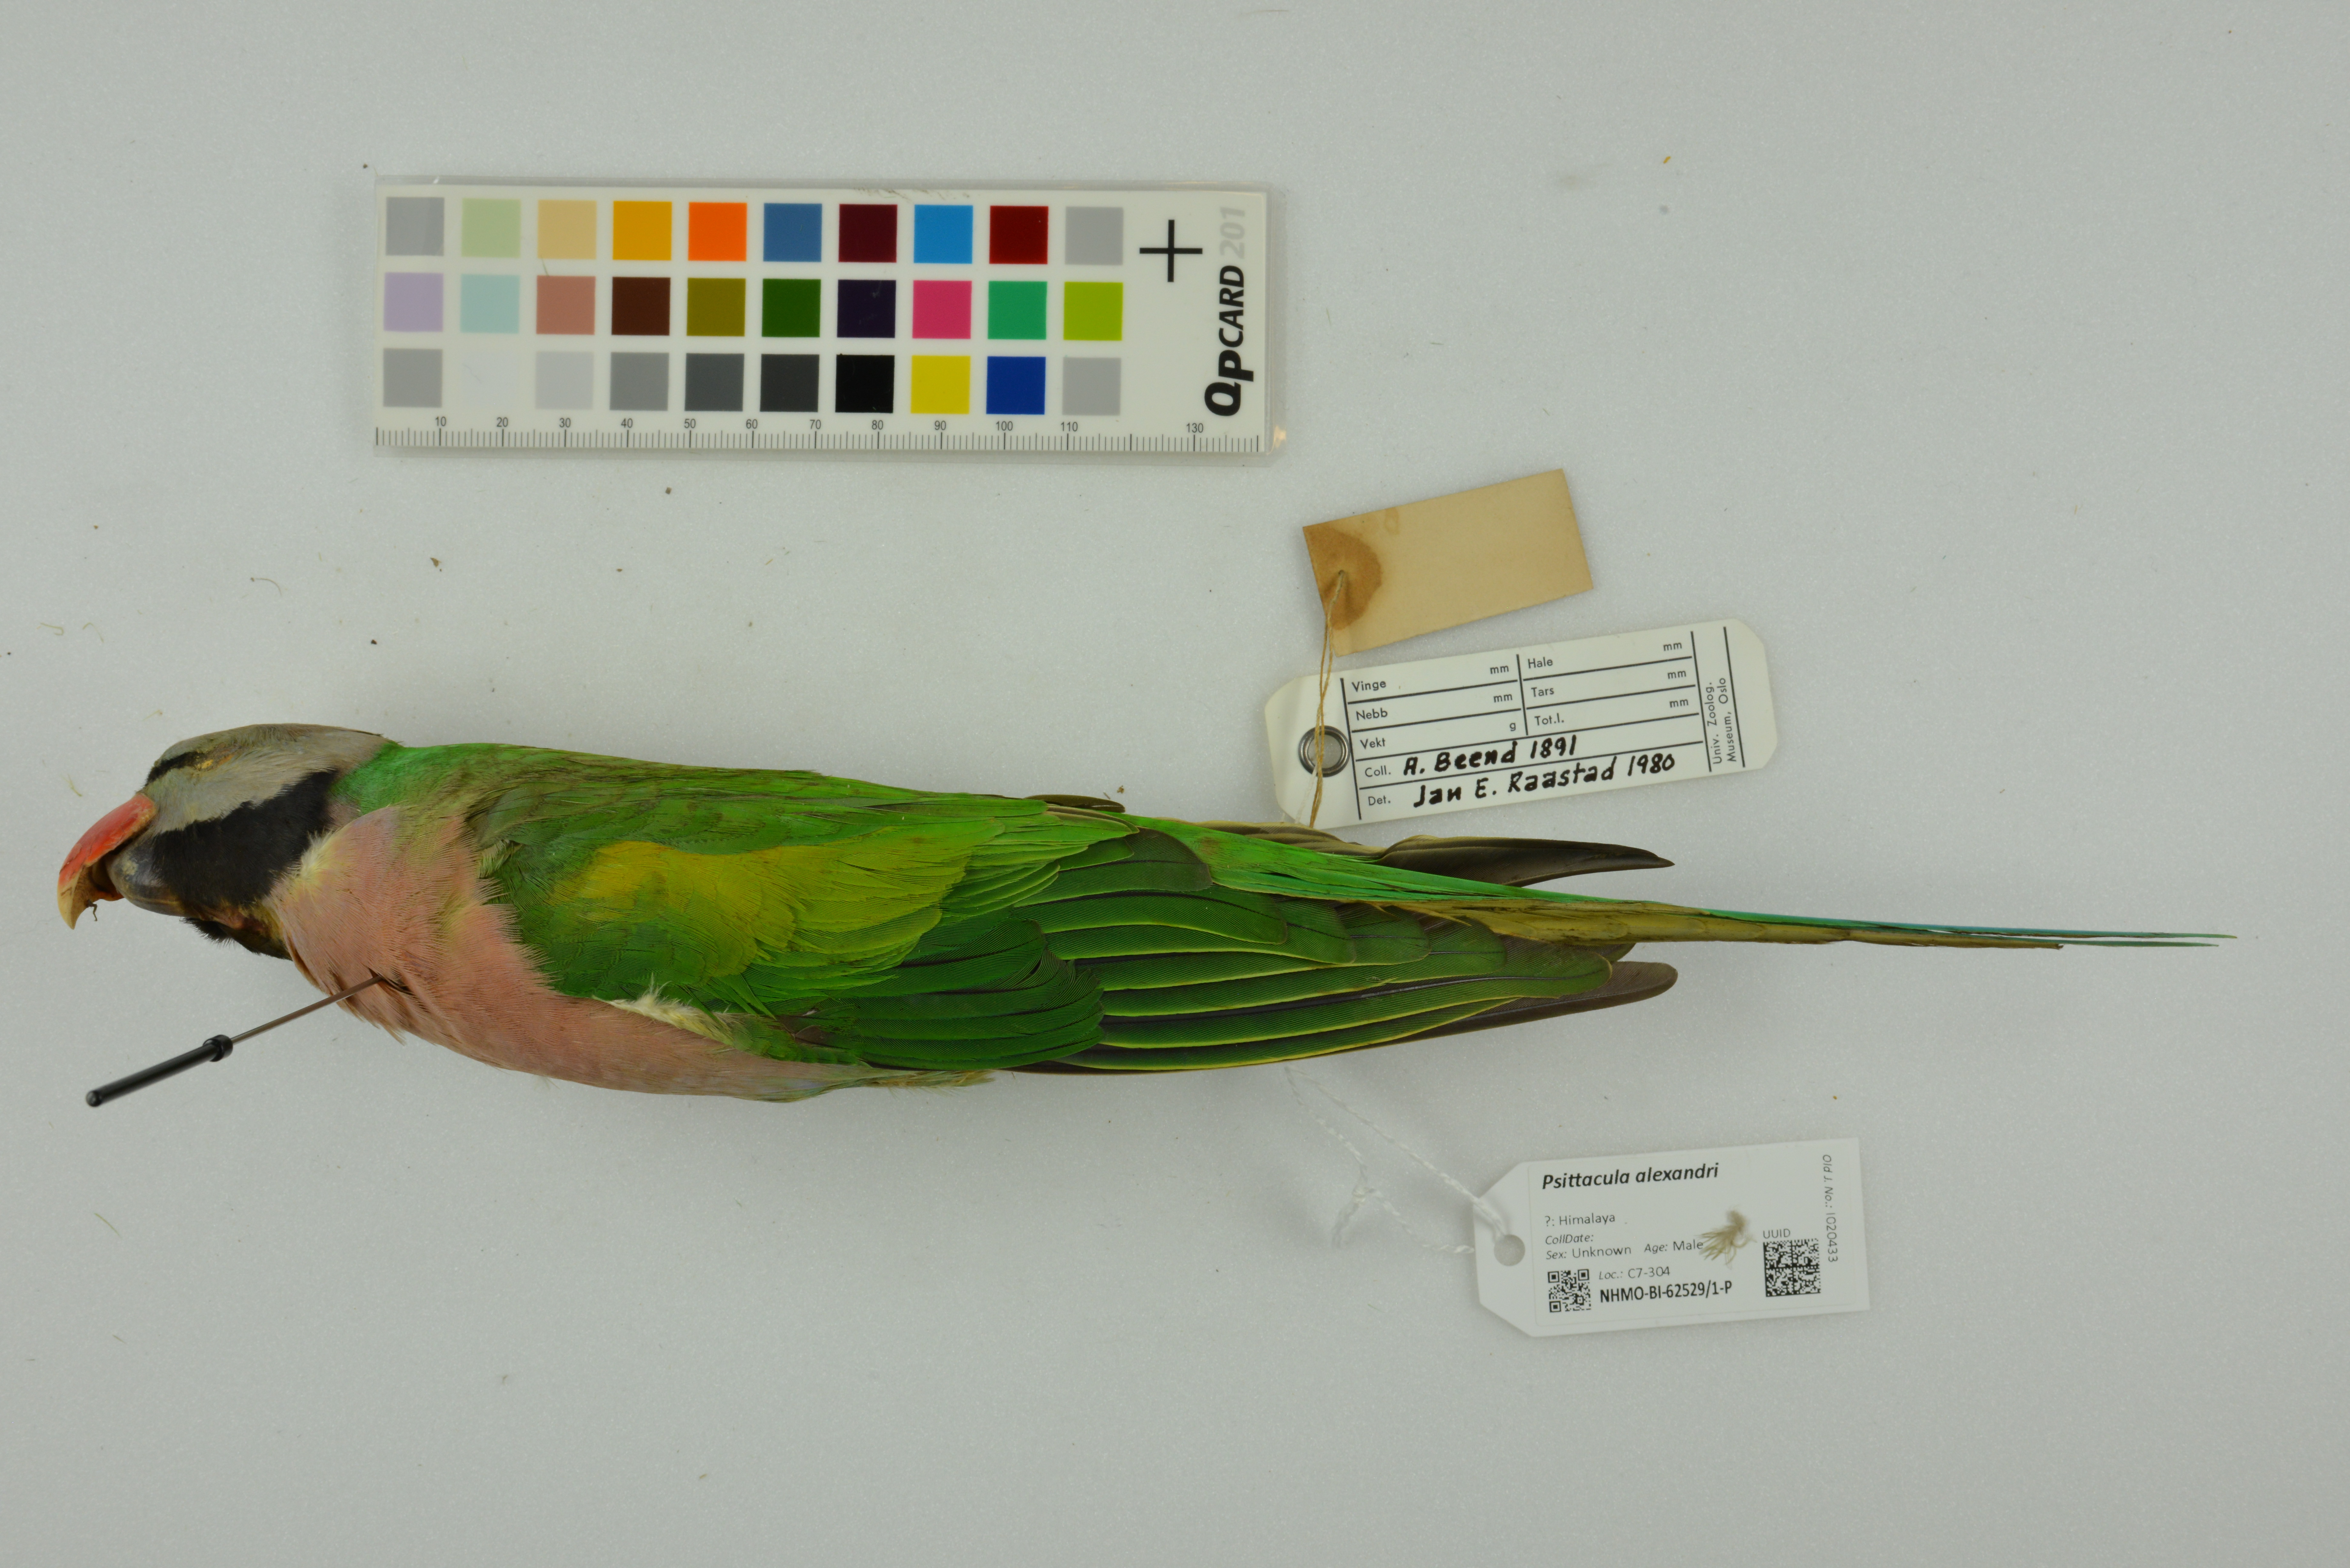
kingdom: Animalia
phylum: Chordata
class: Aves
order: Psittaciformes
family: Psittacidae
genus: Psittacula
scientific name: Psittacula alexandri
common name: Red-breasted parakeet
